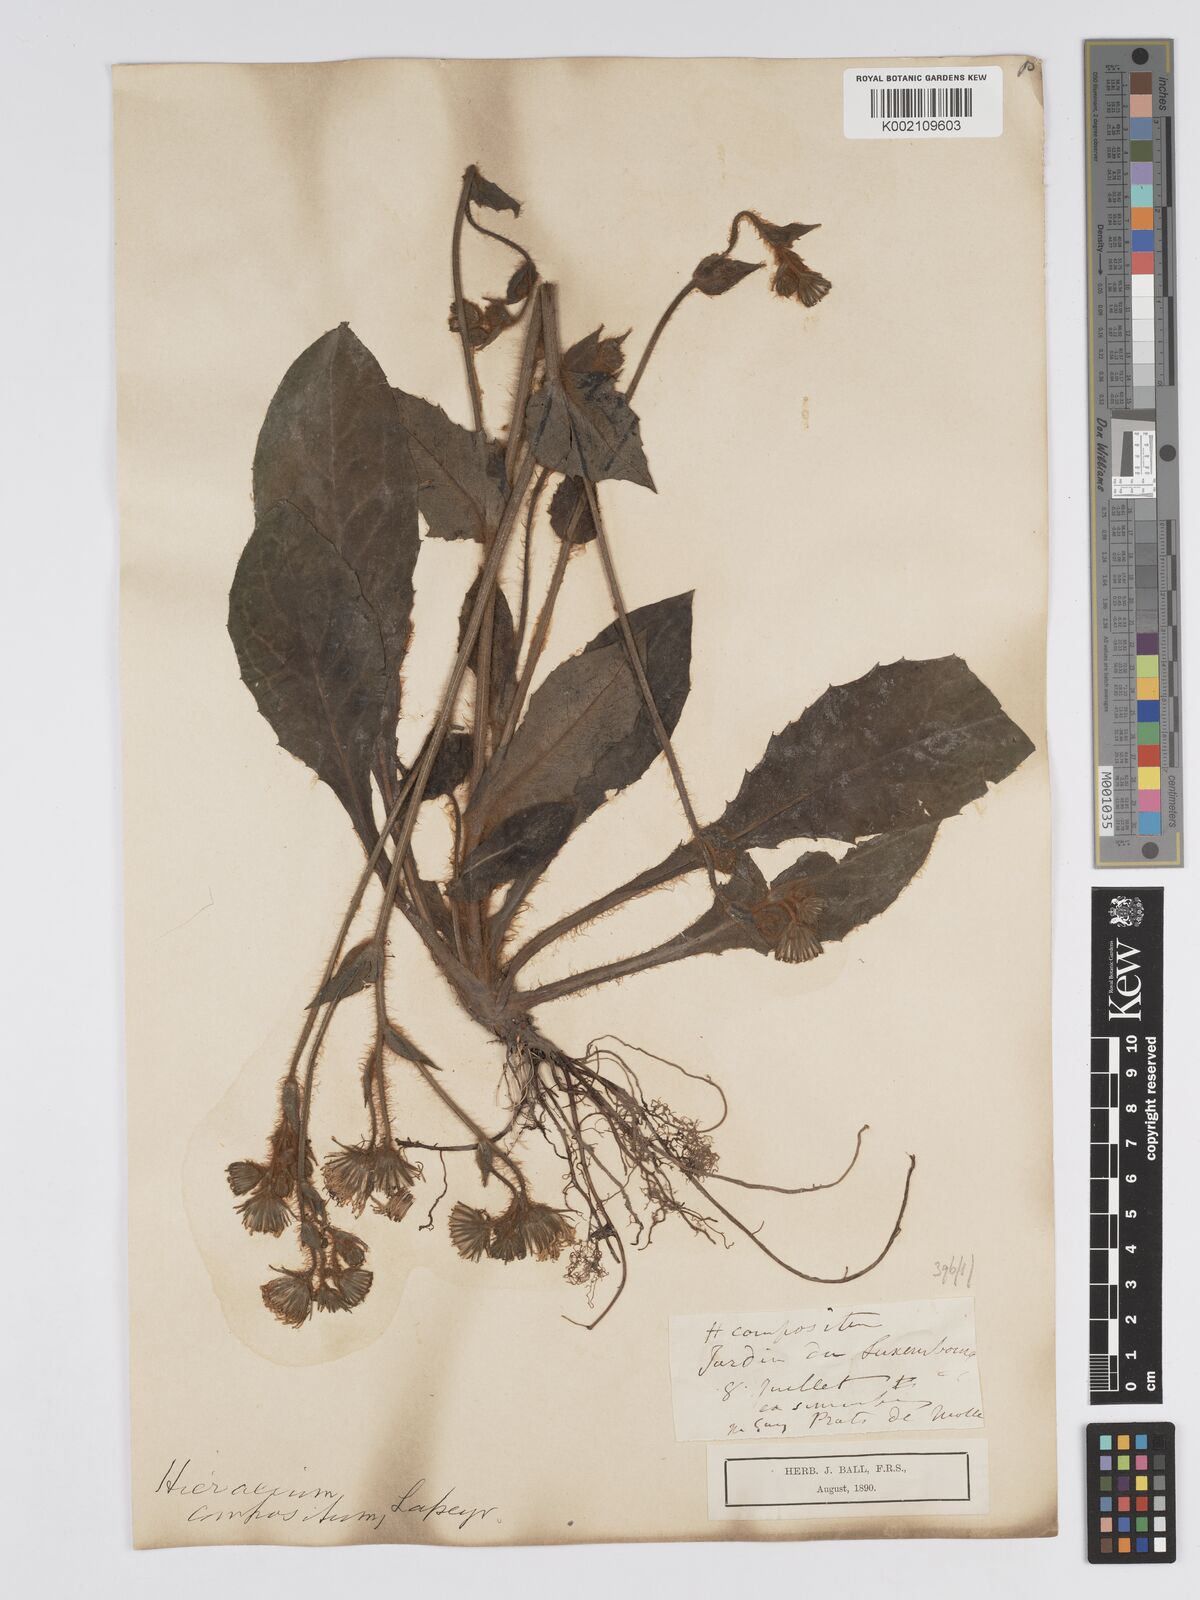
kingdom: Plantae
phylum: Tracheophyta
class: Magnoliopsida
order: Asterales
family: Asteraceae
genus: Hieracium
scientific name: Hieracium compositum
